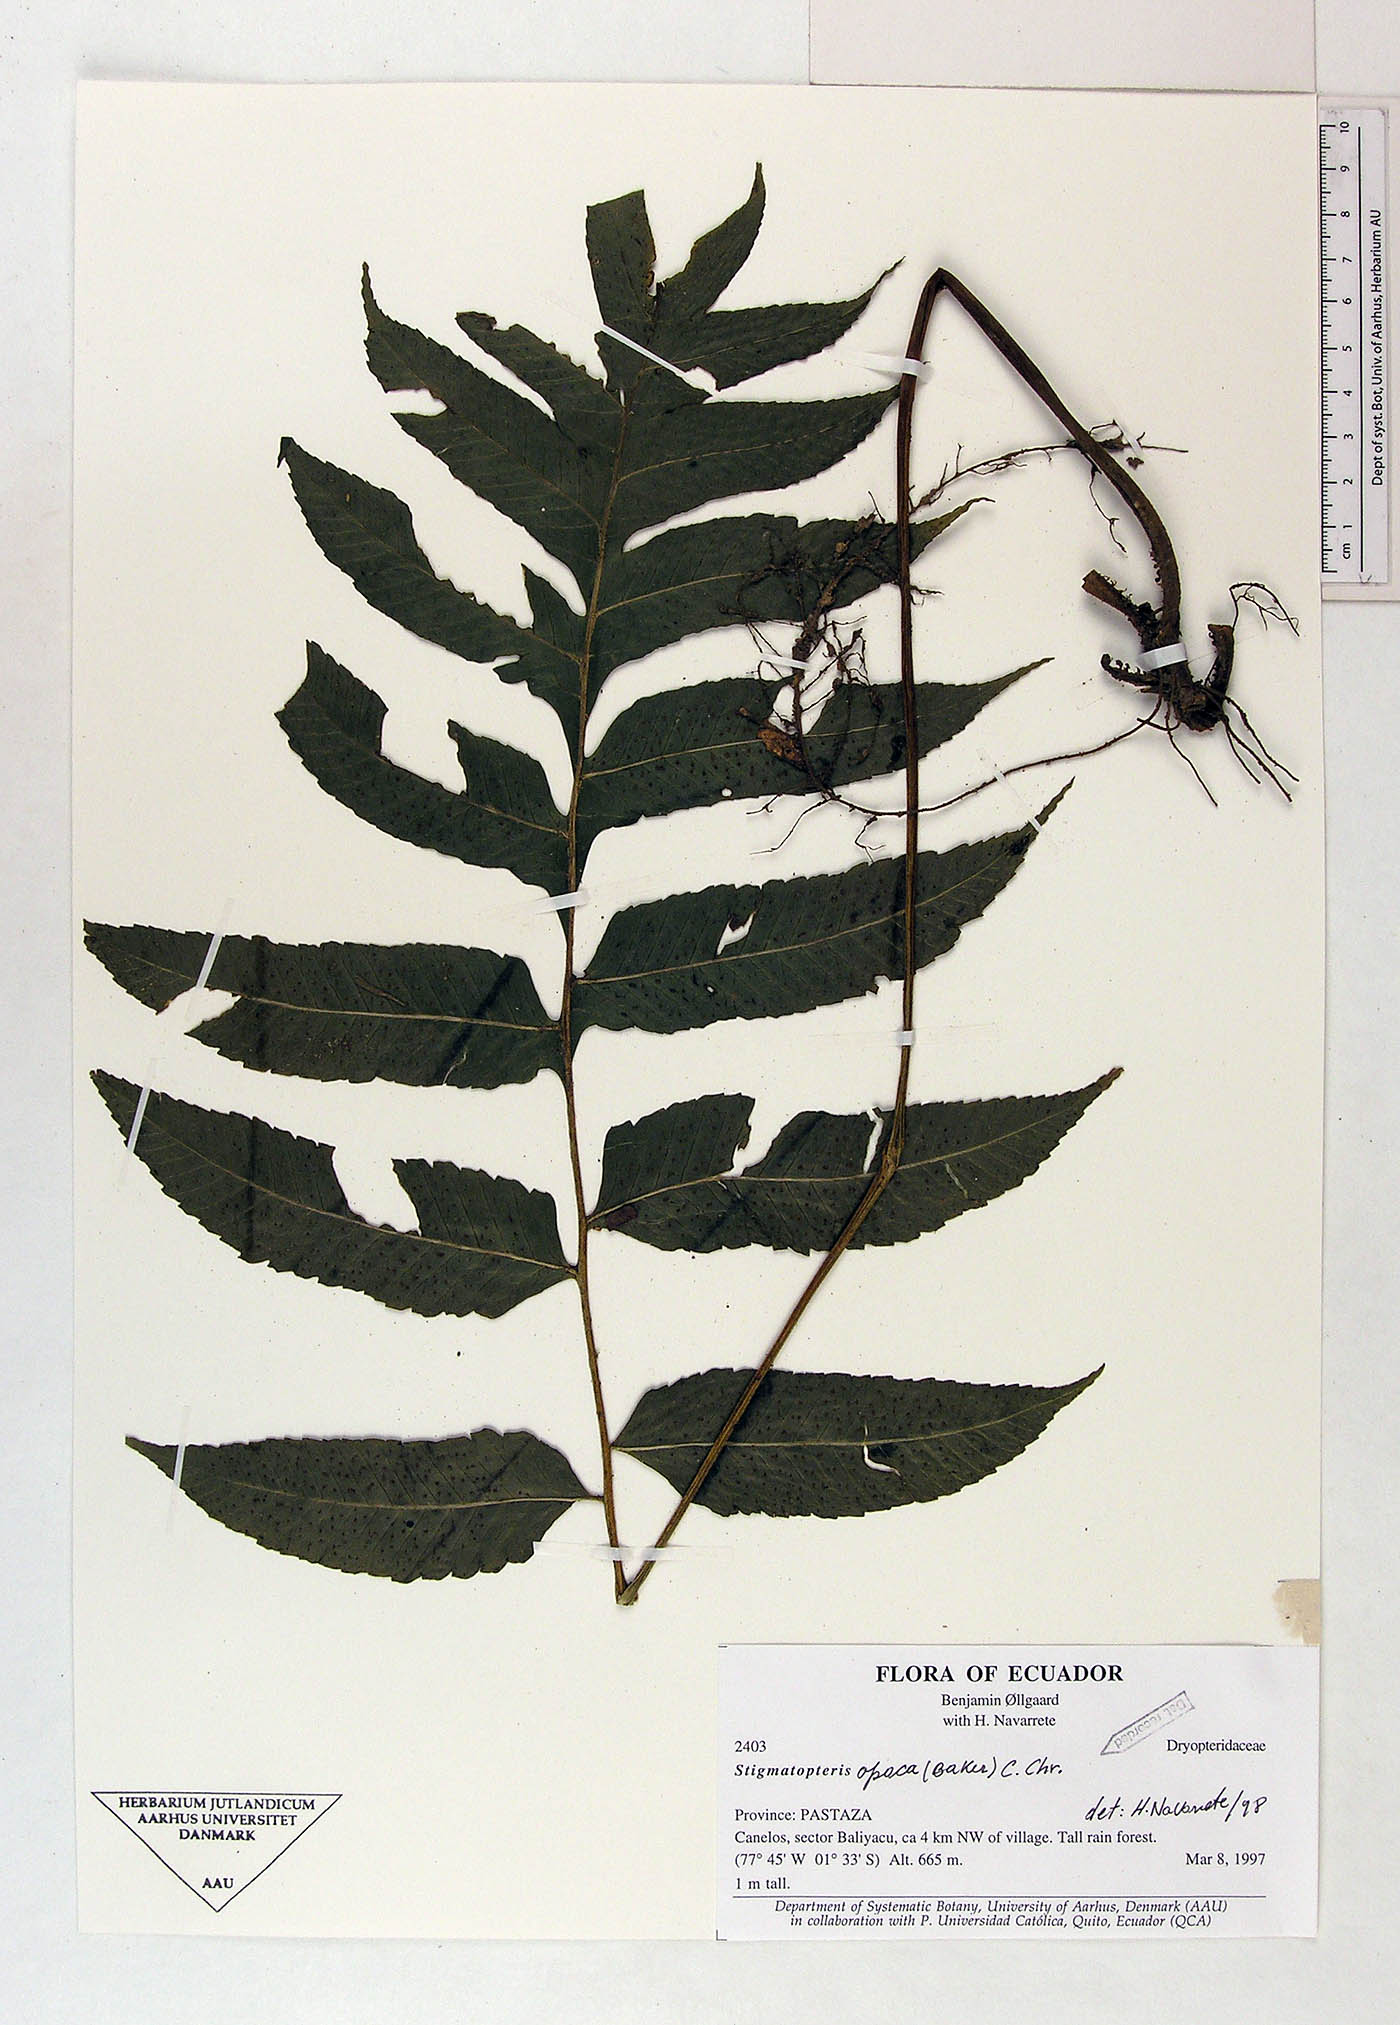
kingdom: Plantae
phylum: Tracheophyta
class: Polypodiopsida
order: Polypodiales
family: Dryopteridaceae
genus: Stigmatopteris
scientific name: Stigmatopteris opaca
